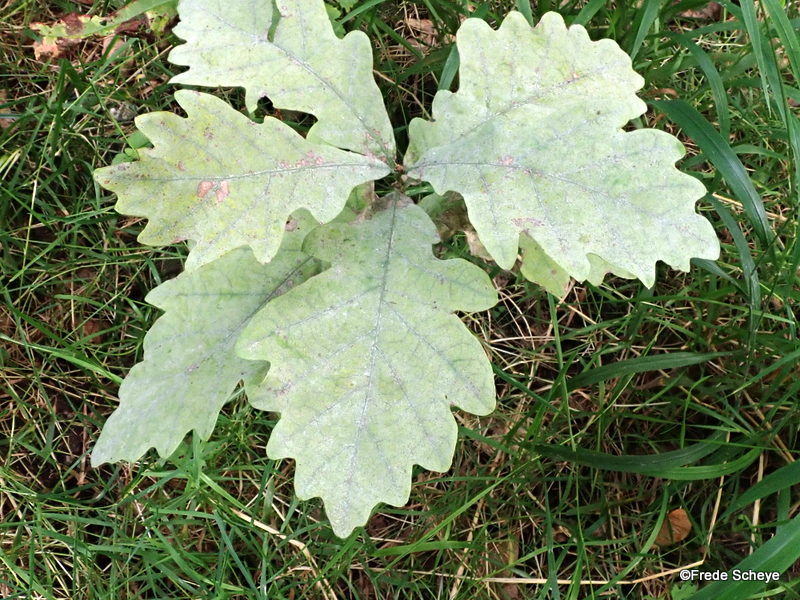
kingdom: Fungi
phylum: Ascomycota
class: Leotiomycetes
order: Helotiales
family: Erysiphaceae
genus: Erysiphe
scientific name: Erysiphe alphitoides
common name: ege-meldug
